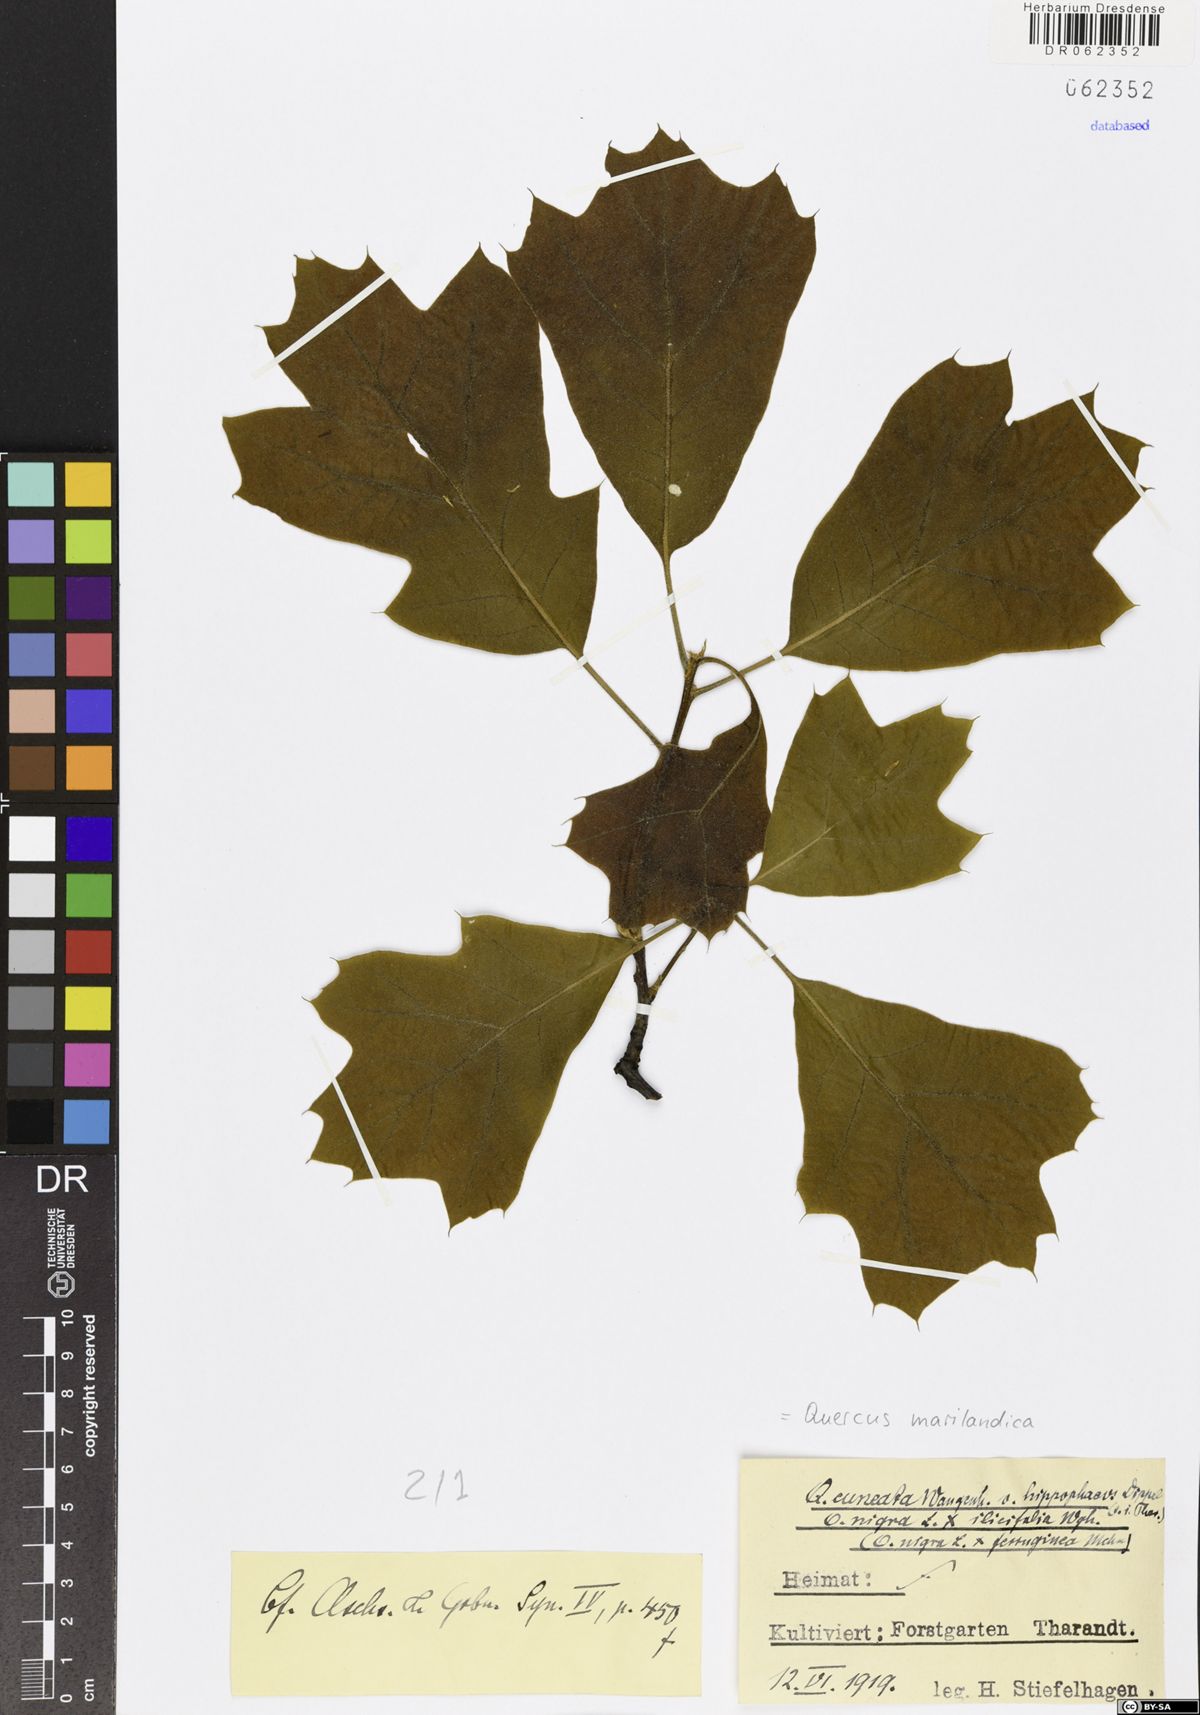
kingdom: Plantae
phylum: Tracheophyta
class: Magnoliopsida
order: Fagales
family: Fagaceae
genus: Quercus
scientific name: Quercus marilandica
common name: Blackjack oak
